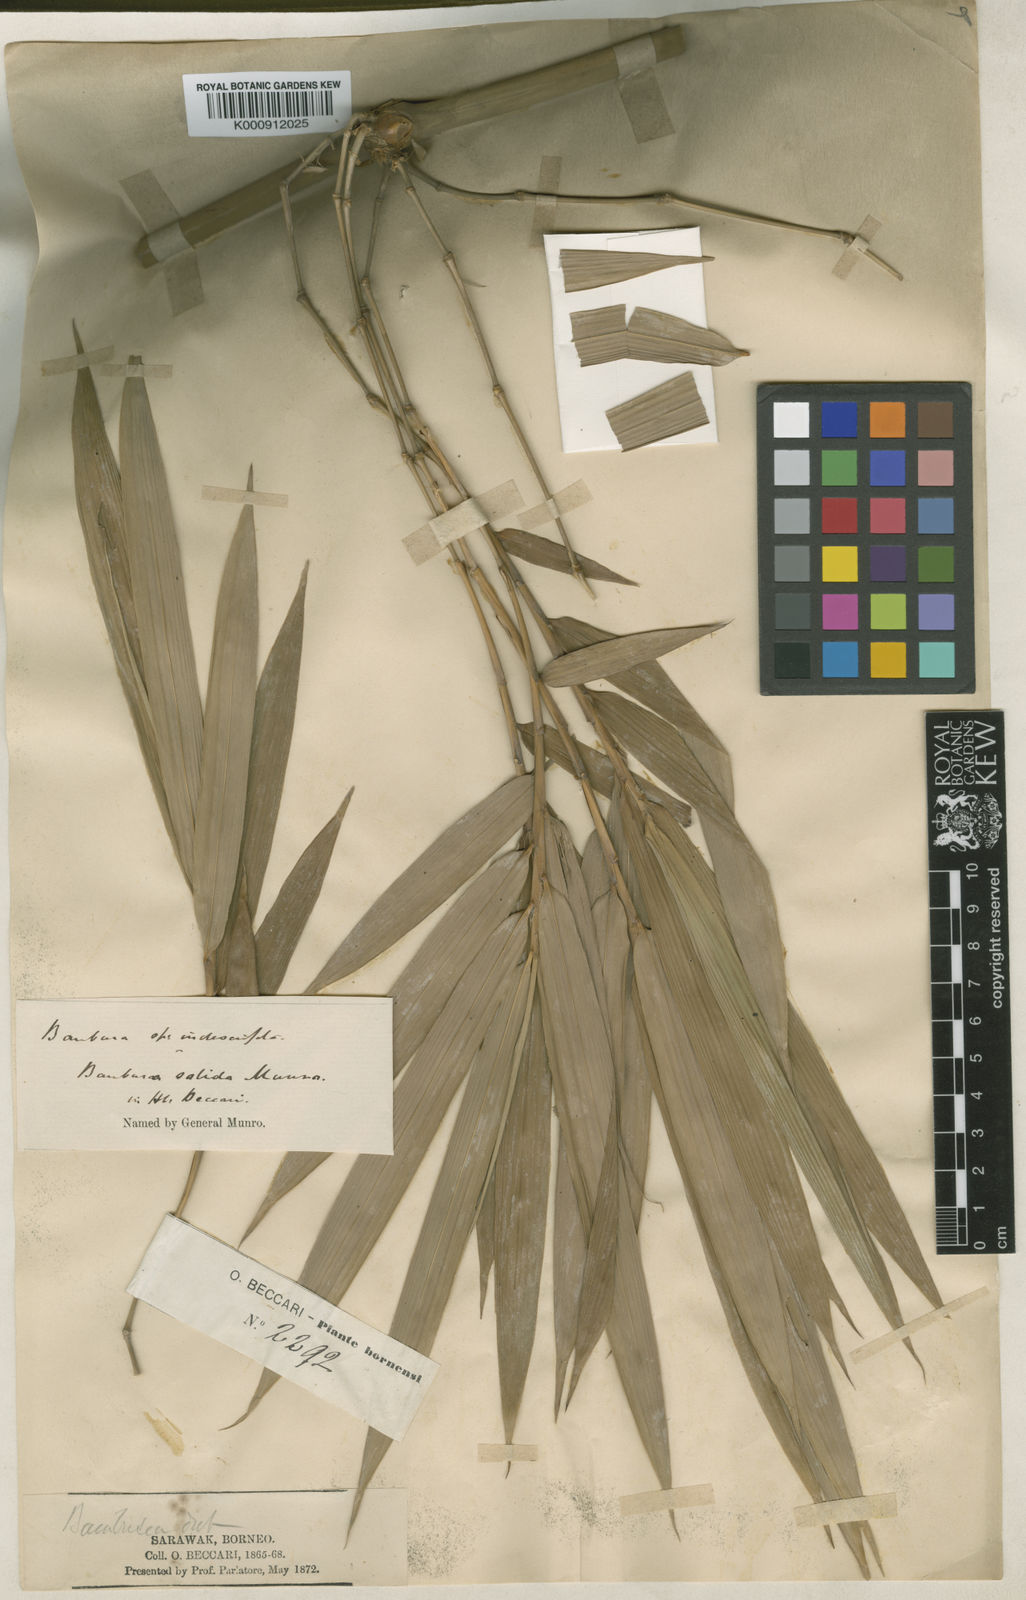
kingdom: Plantae
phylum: Tracheophyta
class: Liliopsida
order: Poales
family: Poaceae
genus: Dinochloa
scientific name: Dinochloa sipitangensis
